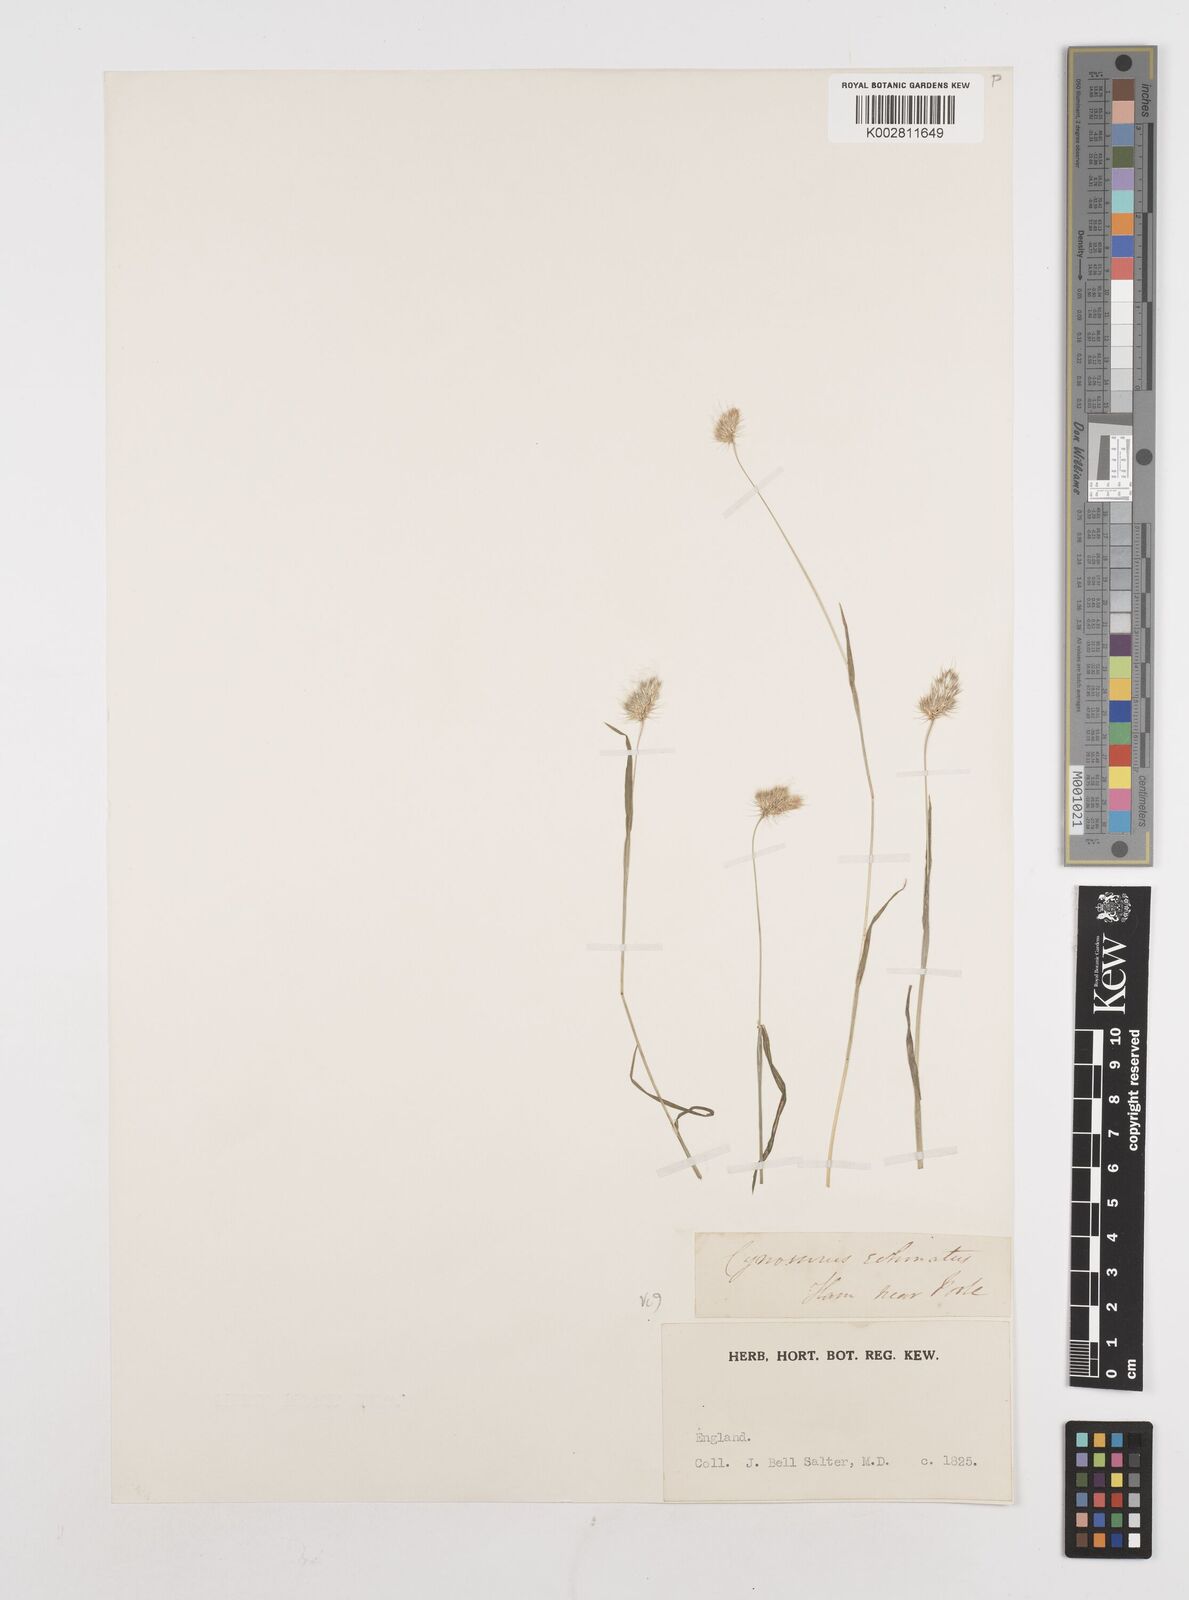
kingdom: Plantae
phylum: Tracheophyta
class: Liliopsida
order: Poales
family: Poaceae
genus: Cynosurus
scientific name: Cynosurus echinatus
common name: Rough dog's-tail
